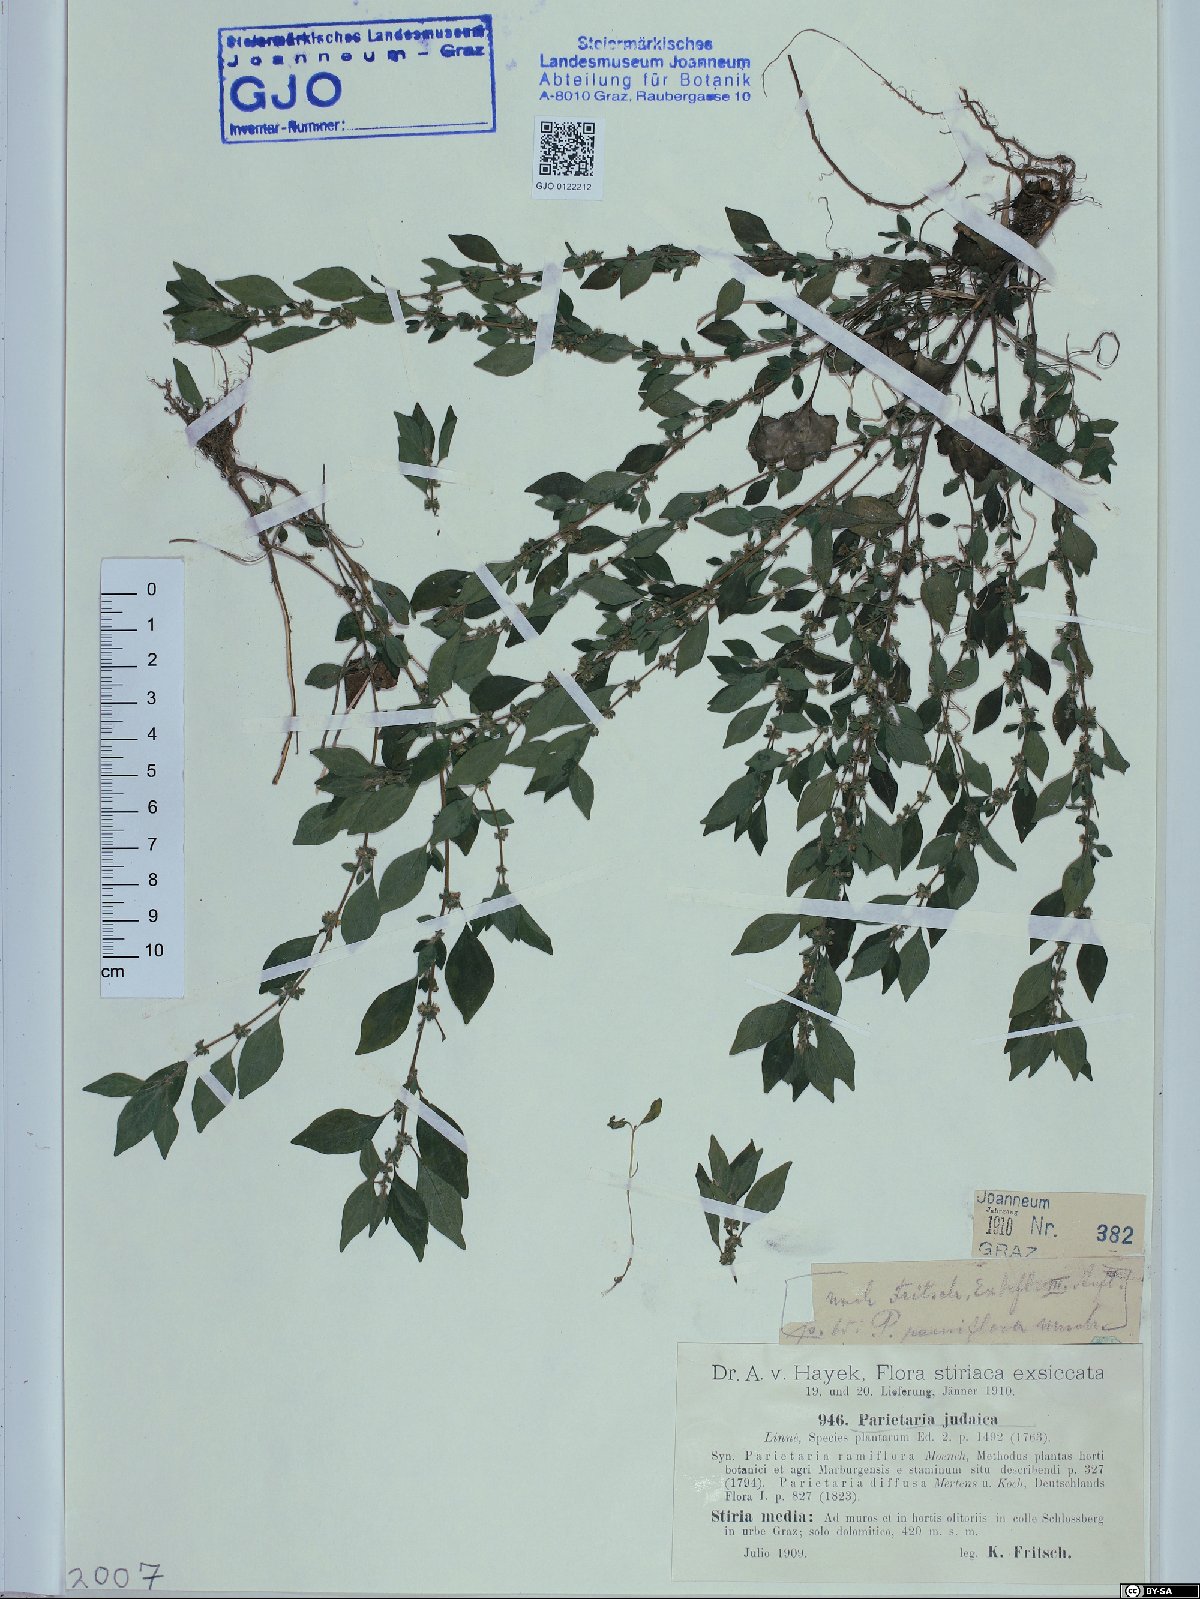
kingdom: Plantae
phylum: Tracheophyta
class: Magnoliopsida
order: Rosales
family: Urticaceae
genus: Parietaria
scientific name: Parietaria judaica
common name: Pellitory-of-the-wall
